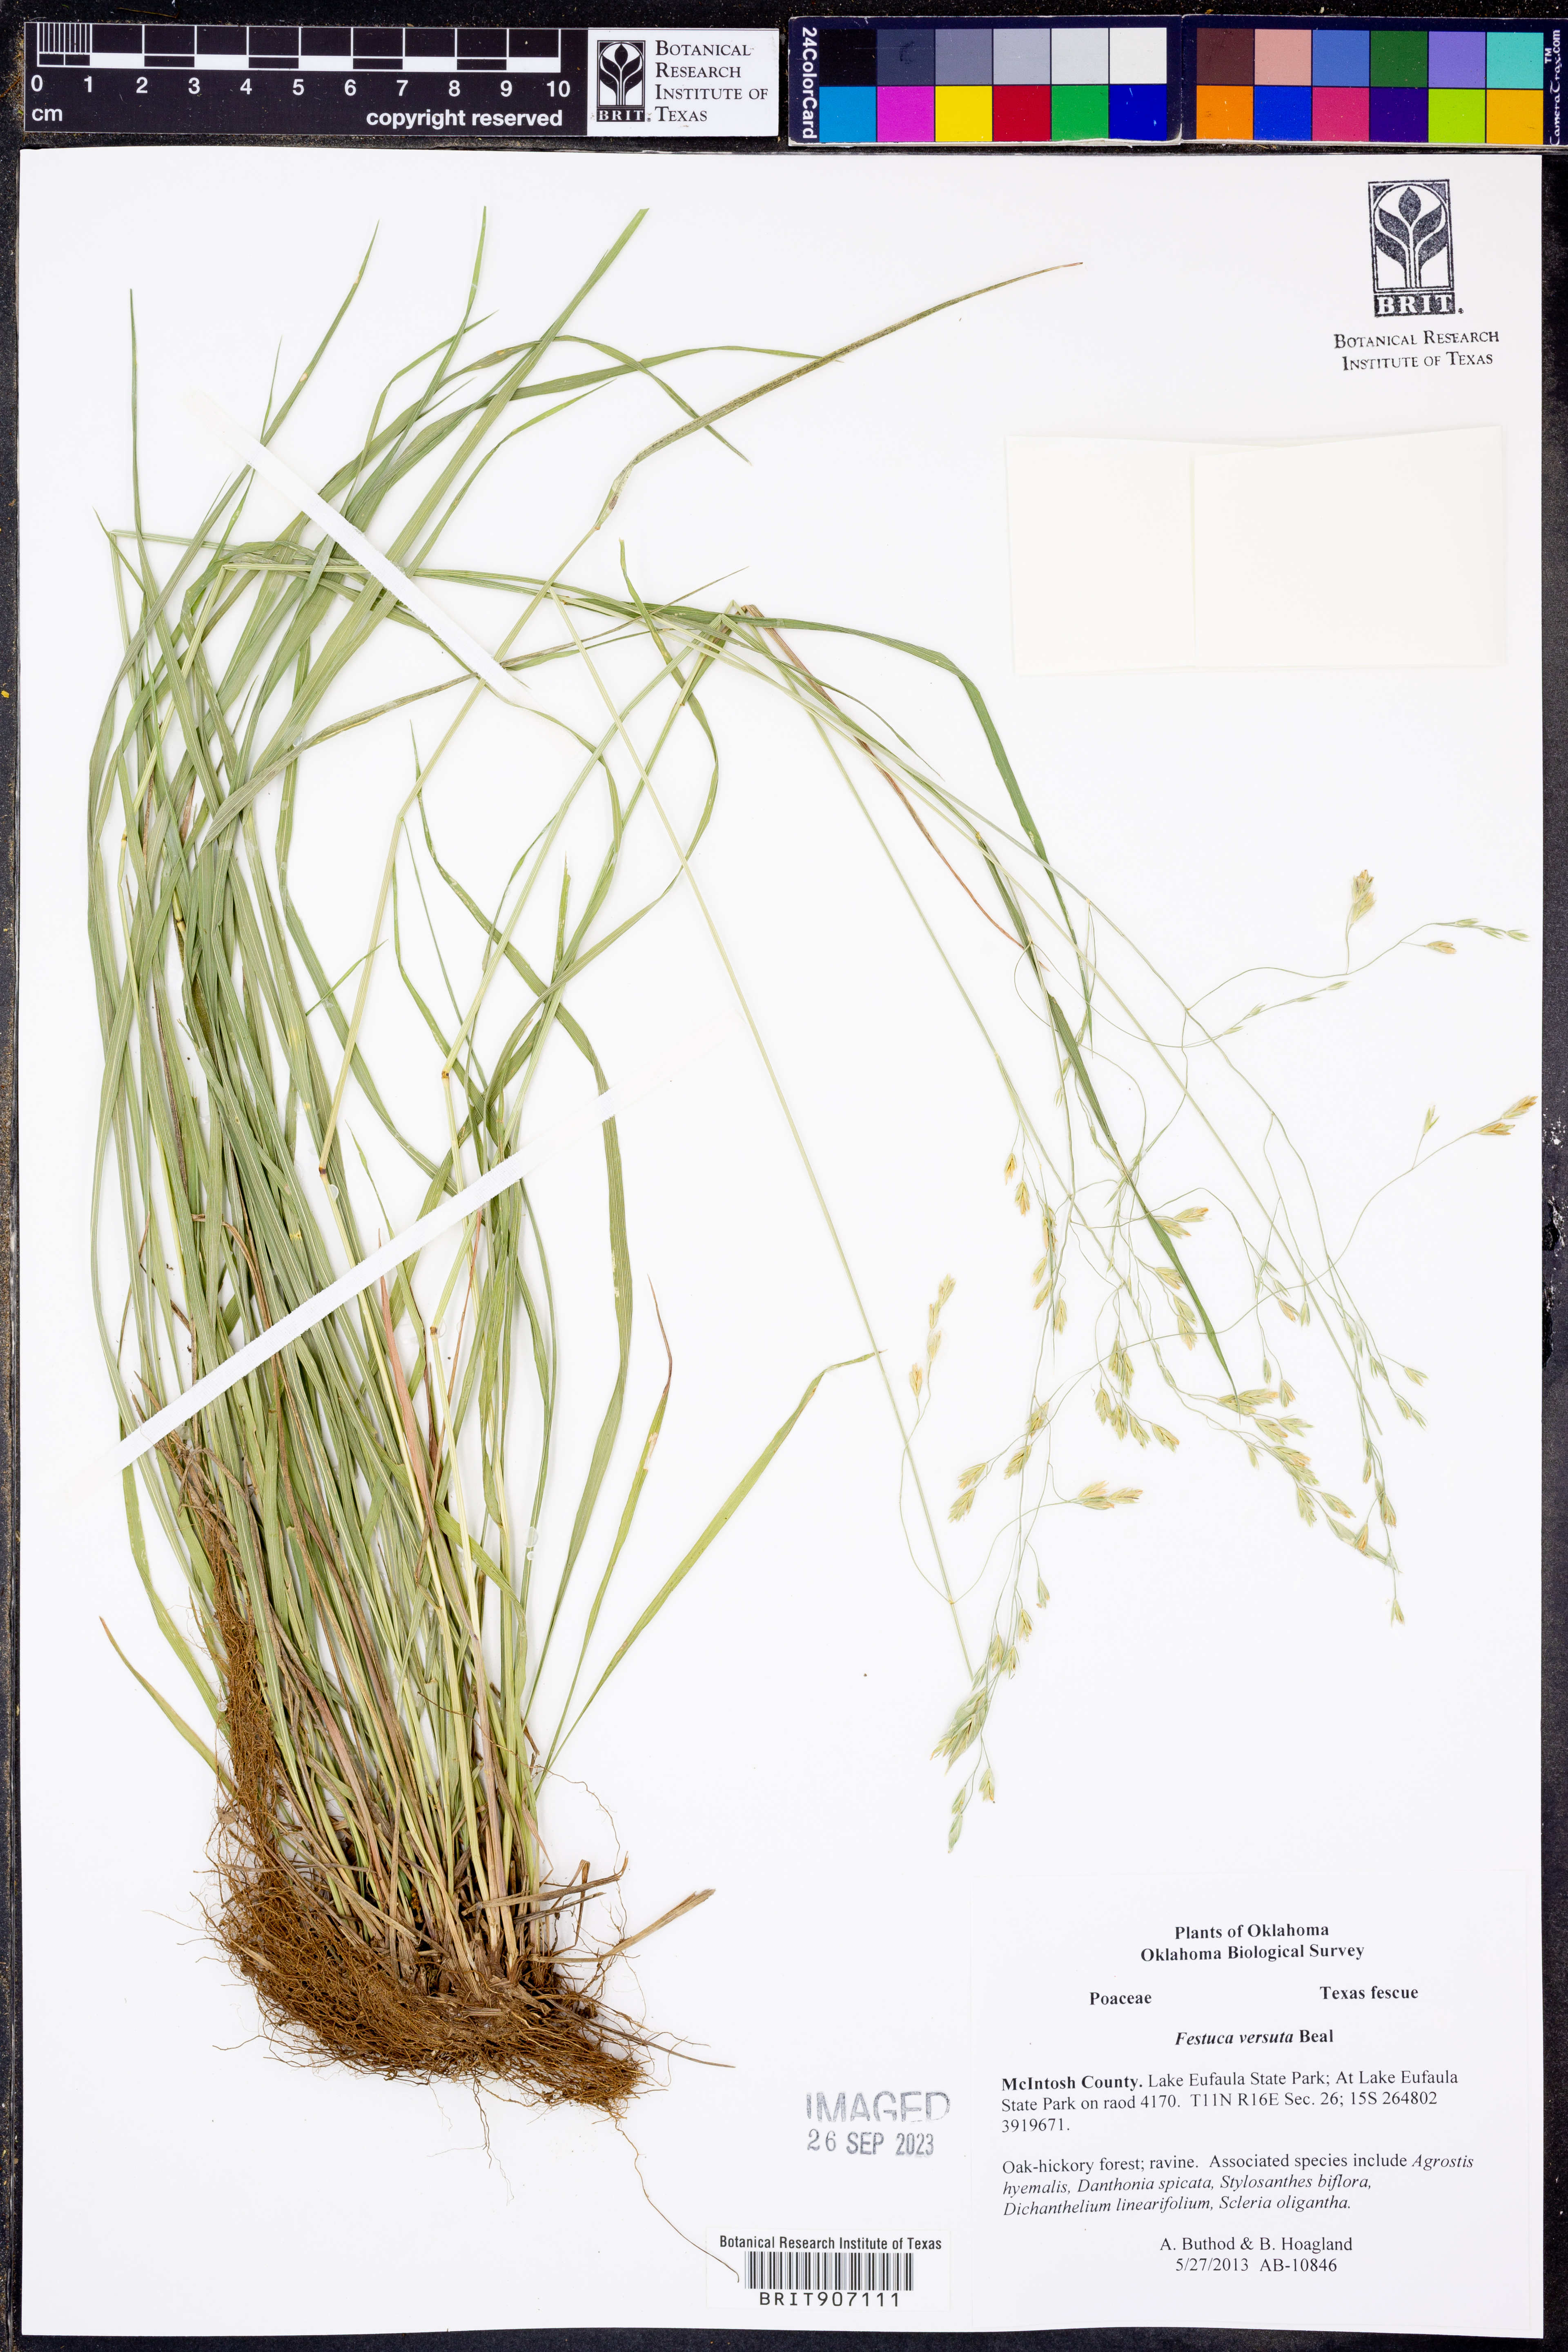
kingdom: Plantae
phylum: Tracheophyta
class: Liliopsida
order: Poales
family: Poaceae
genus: Festuca
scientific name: Festuca versuta
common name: Texas fescue
